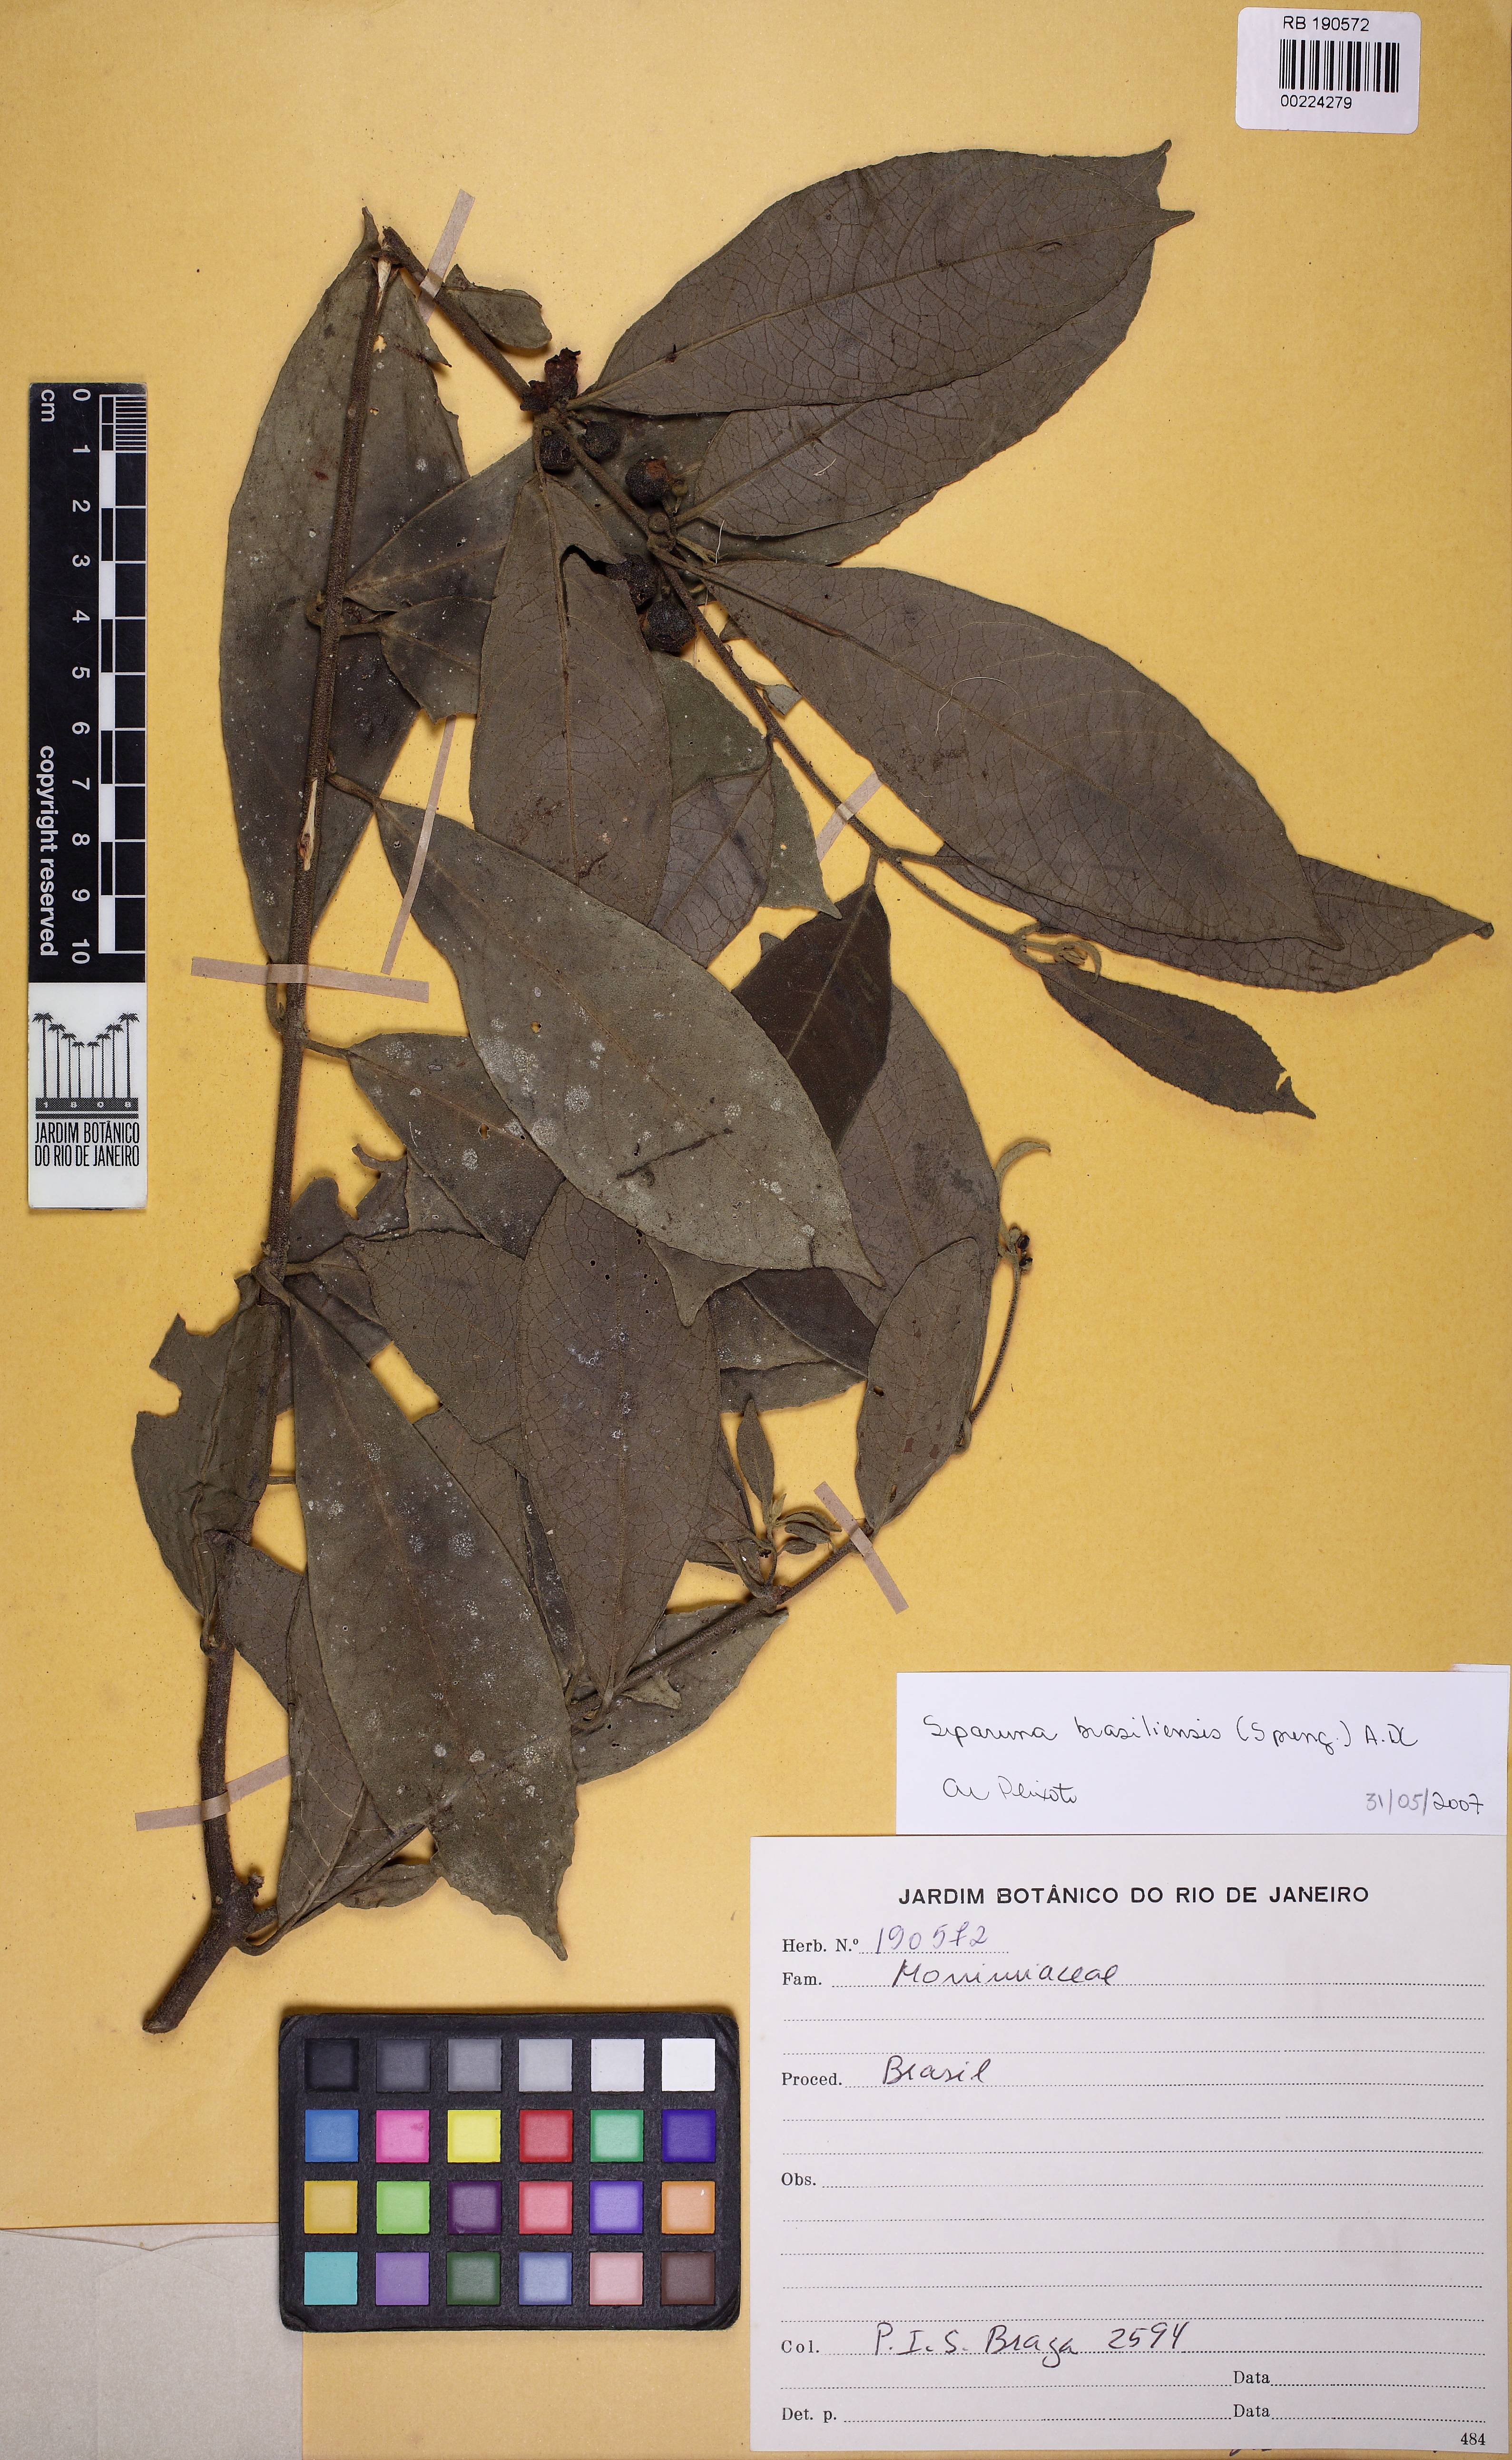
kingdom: Plantae
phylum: Tracheophyta
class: Magnoliopsida
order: Laurales
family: Siparunaceae
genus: Siparuna
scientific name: Siparuna brasiliensis
